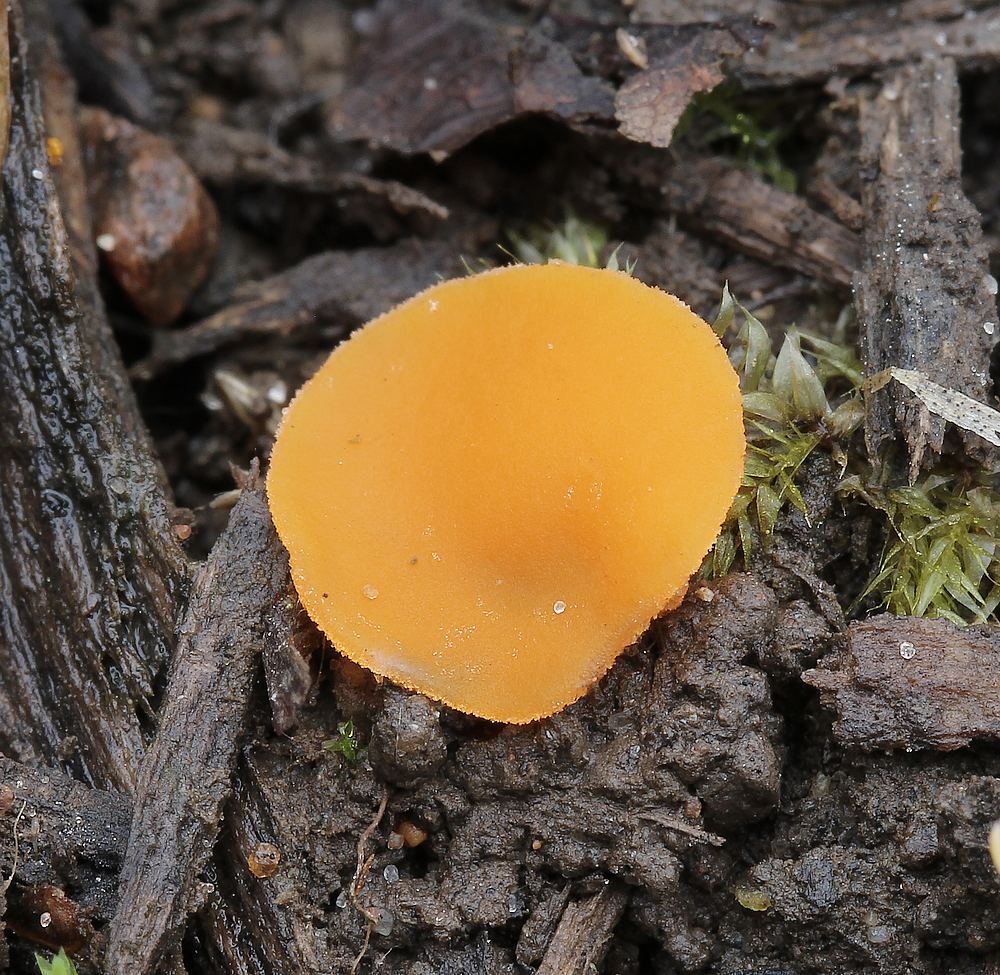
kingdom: Fungi
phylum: Ascomycota
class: Pezizomycetes
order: Pezizales
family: Pyronemataceae
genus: Aleuria
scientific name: Aleuria aurantia
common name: almindelig orangebæger
